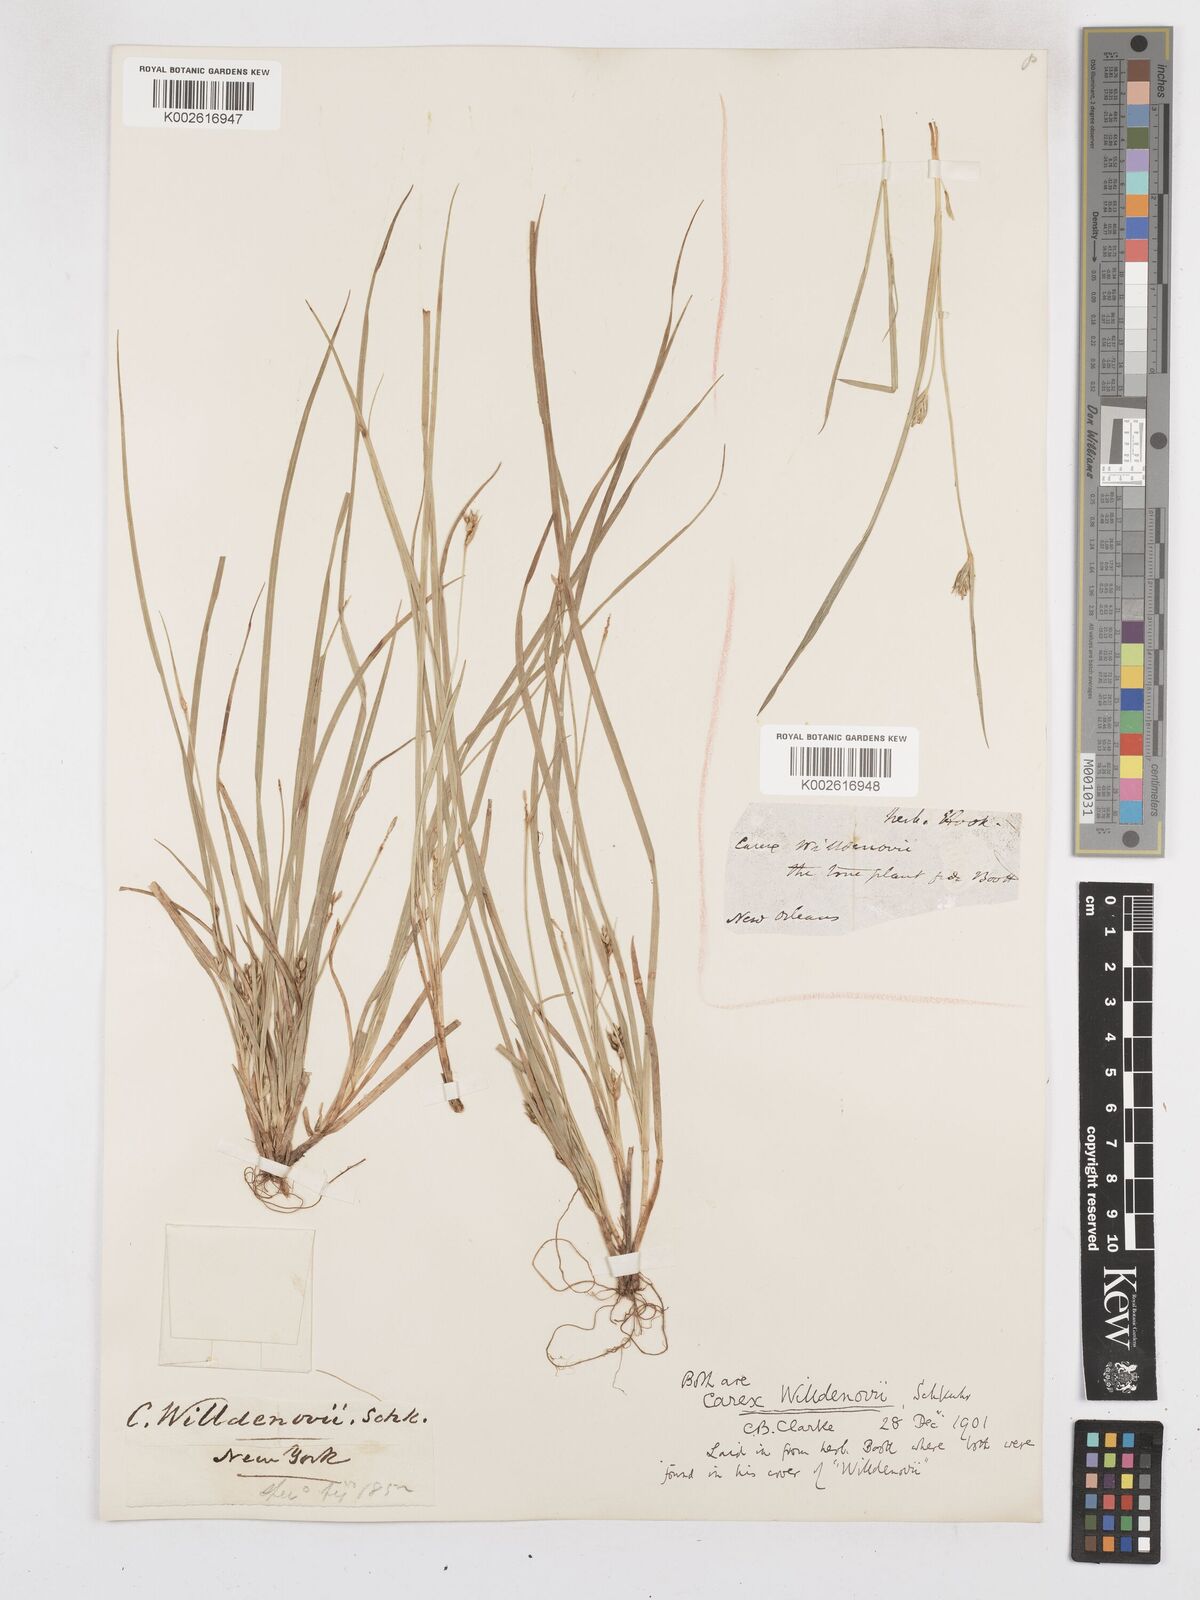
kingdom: Plantae
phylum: Tracheophyta
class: Liliopsida
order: Poales
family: Cyperaceae
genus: Carex
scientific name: Carex willdenowii
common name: Willdenow's sedge
